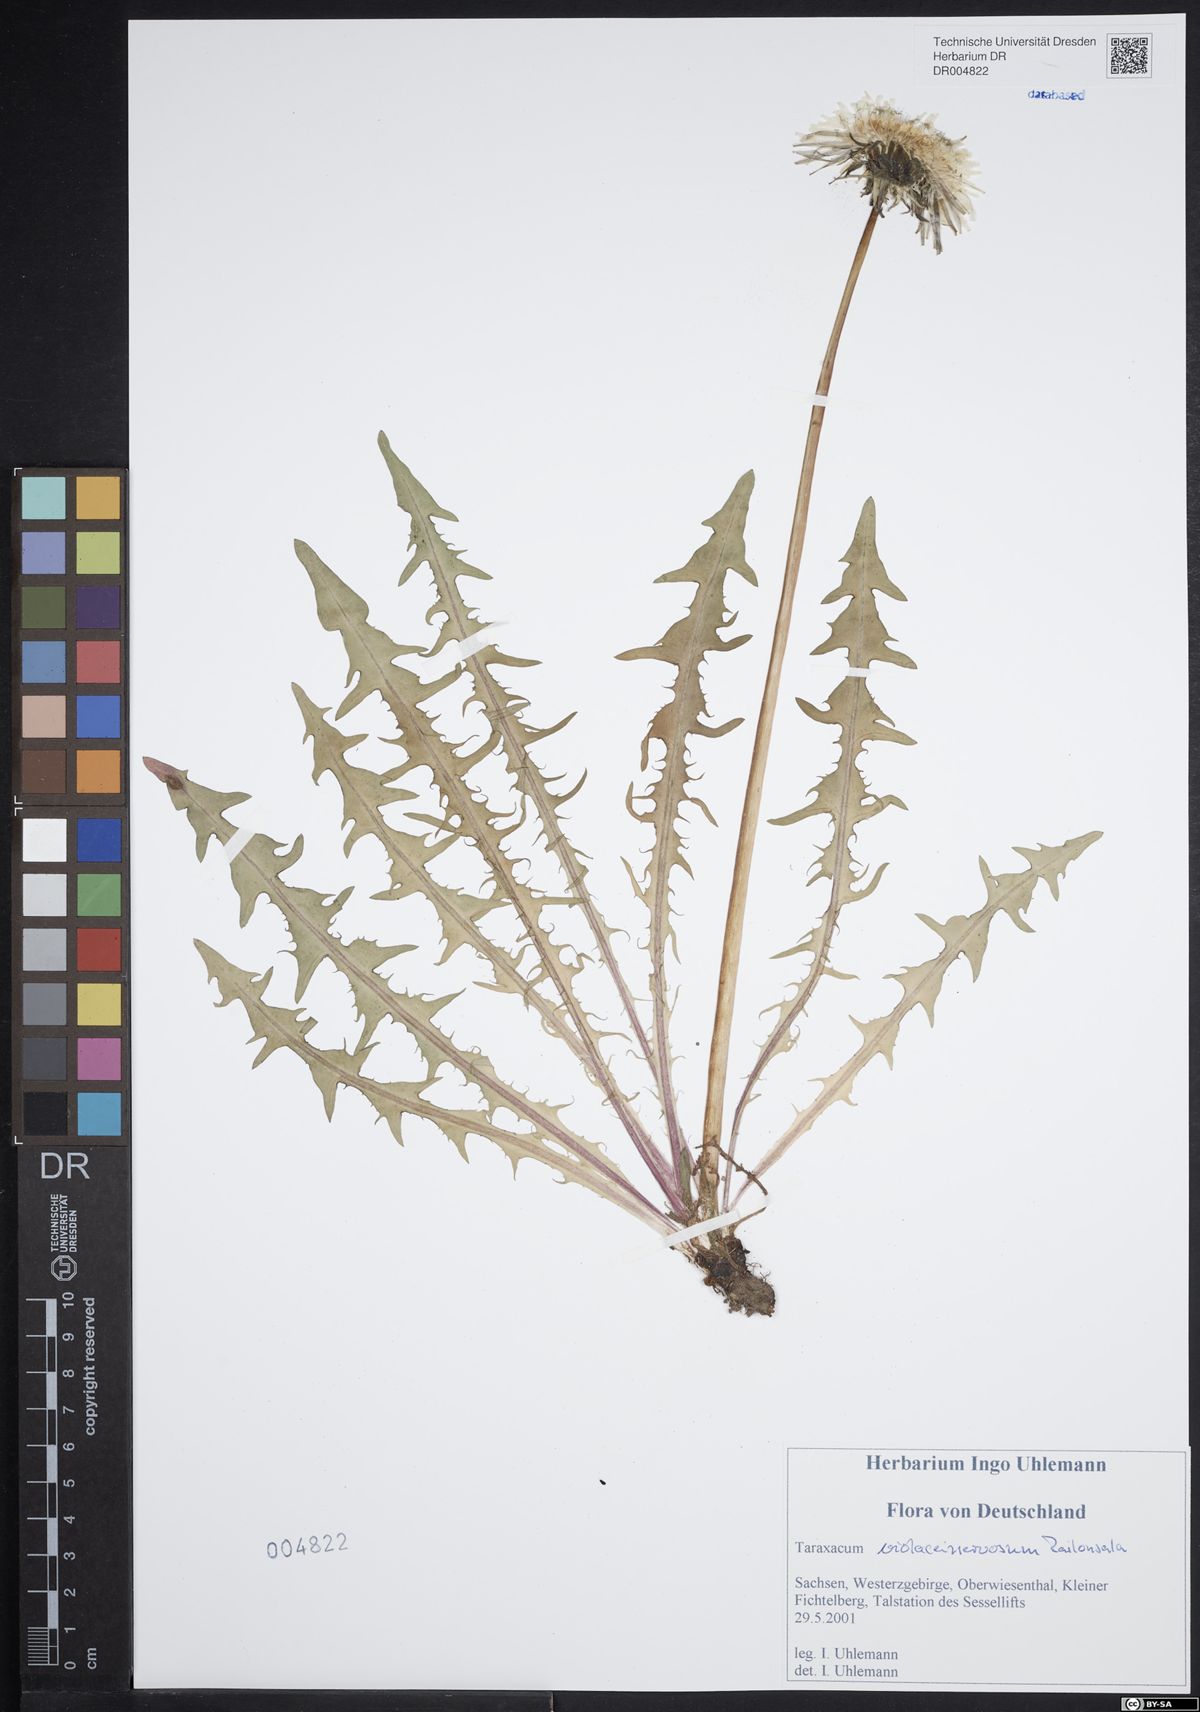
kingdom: Plantae
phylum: Tracheophyta
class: Magnoliopsida
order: Asterales
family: Asteraceae
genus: Taraxacum
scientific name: Taraxacum violaceinervosum
